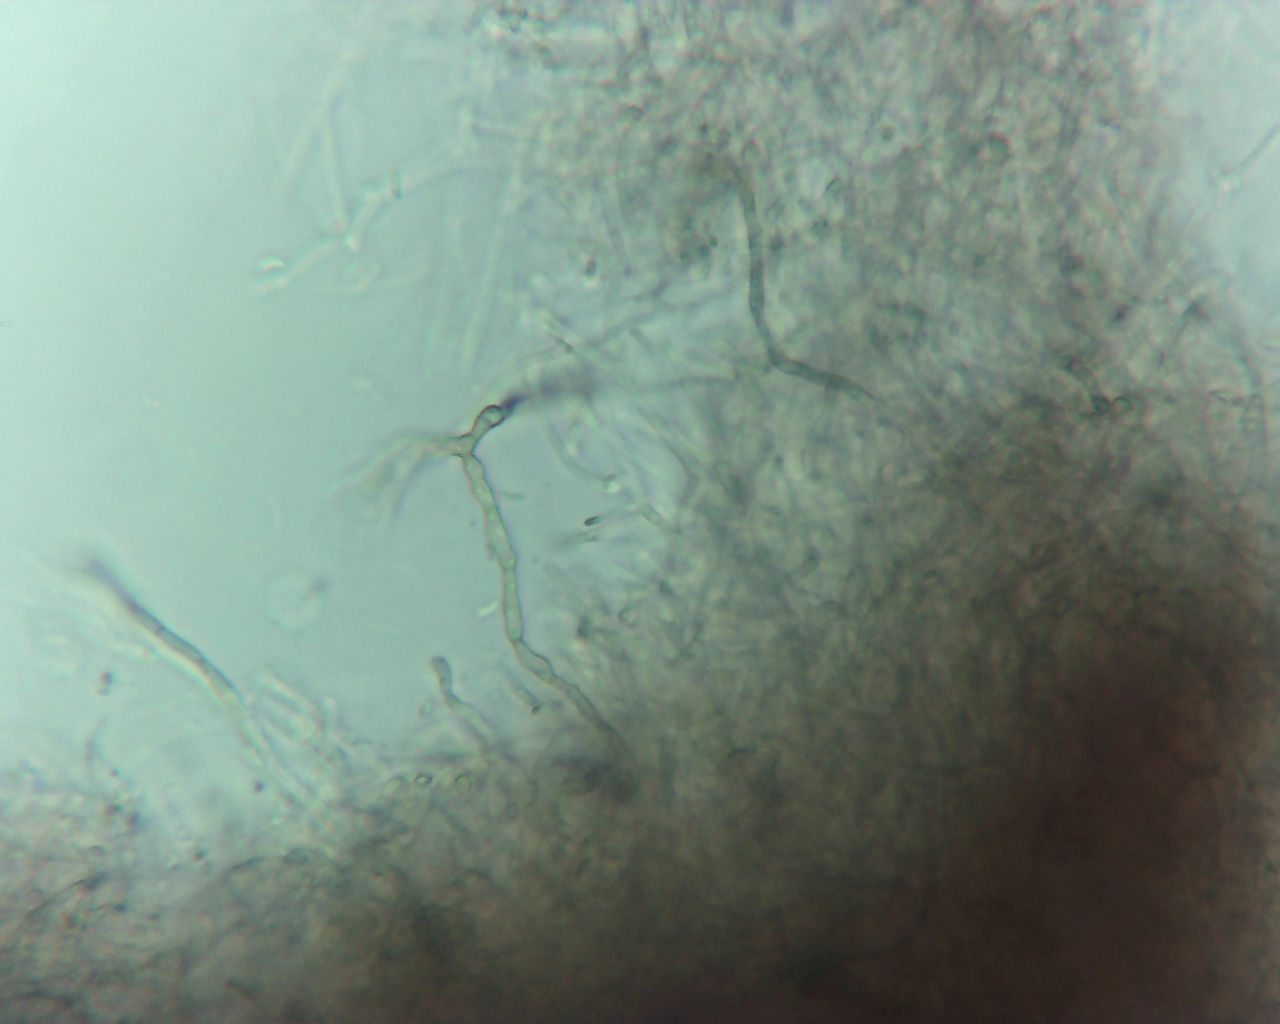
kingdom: Fungi
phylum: Ascomycota
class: Leotiomycetes
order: Helotiales
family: Gelatinodiscaceae
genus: Ascocoryne
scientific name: Ascocoryne
